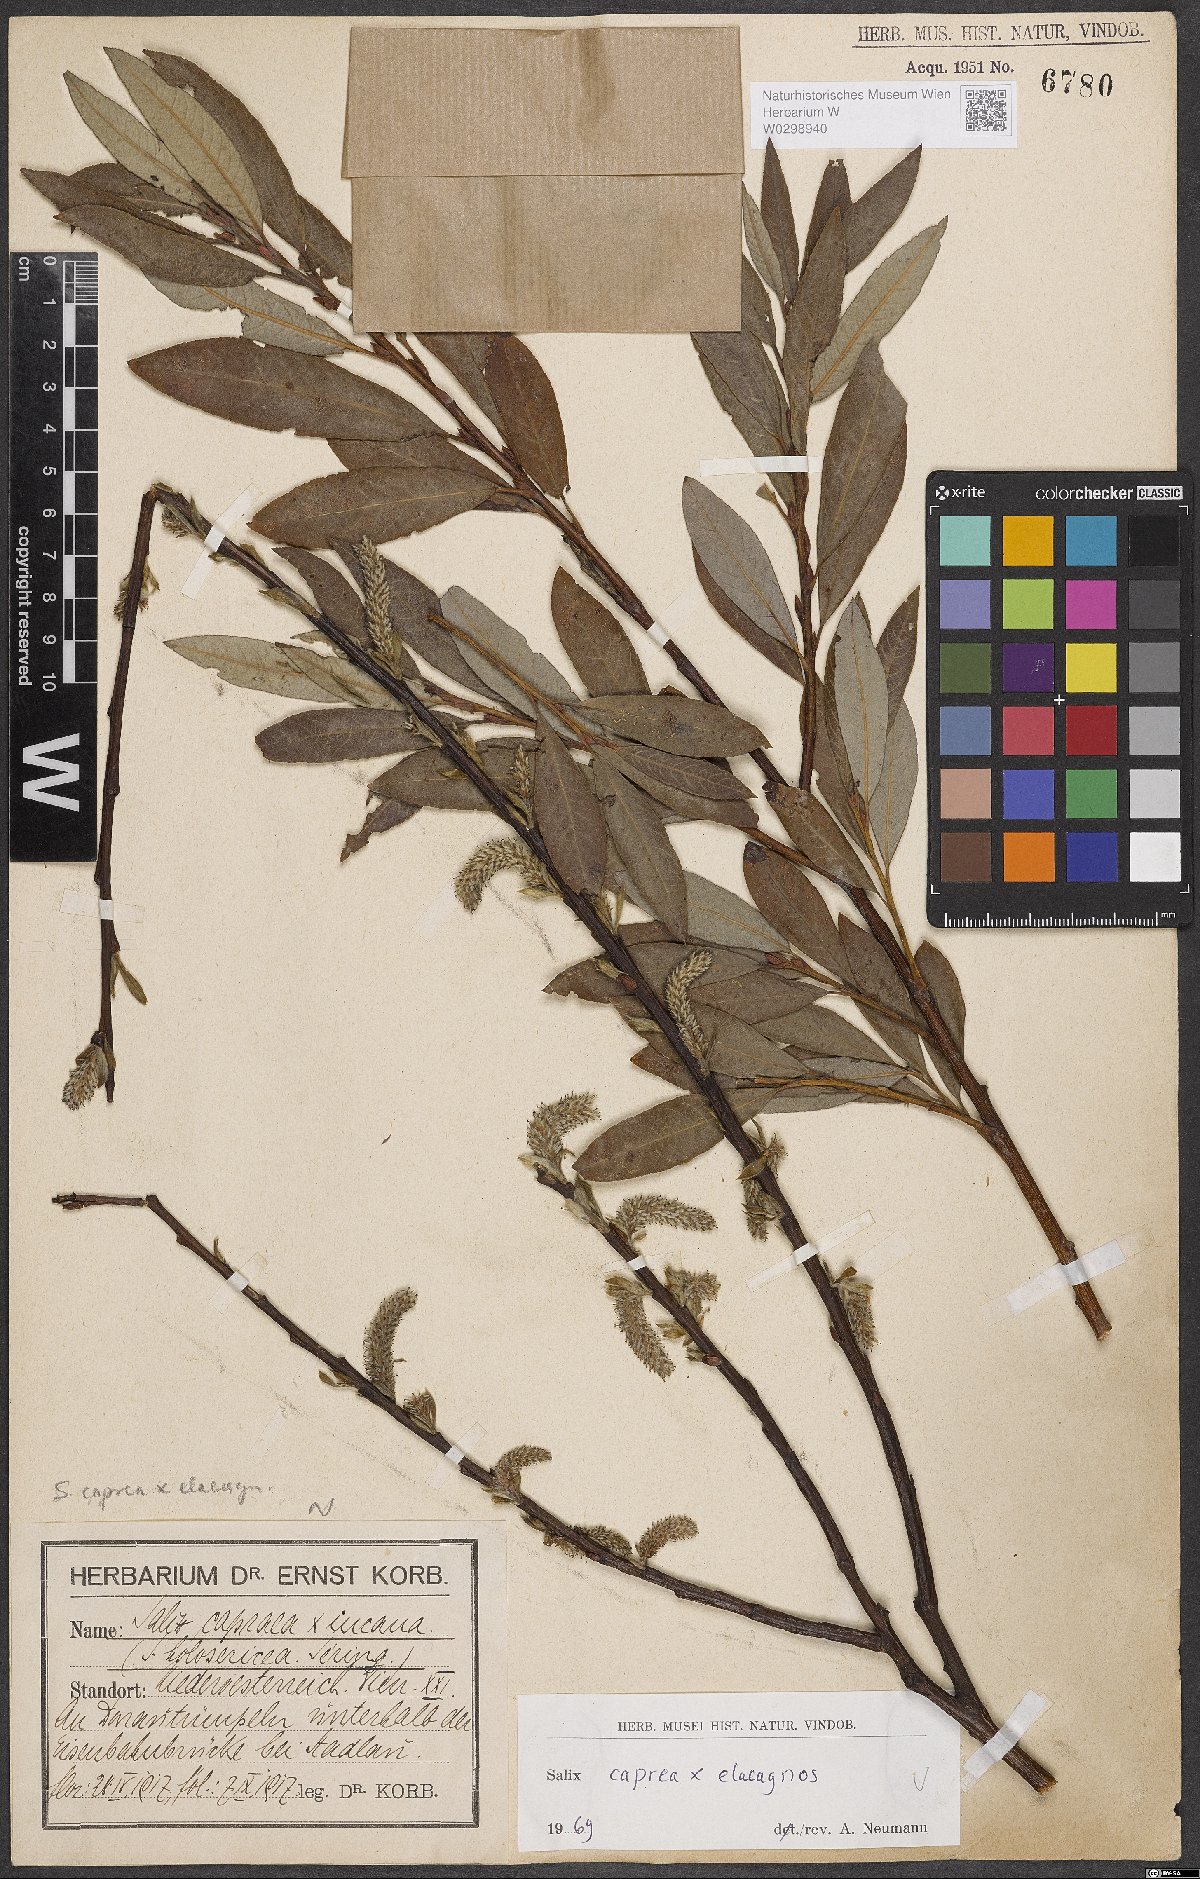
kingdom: Plantae
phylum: Tracheophyta
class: Magnoliopsida
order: Malpighiales
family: Salicaceae
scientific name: Salicaceae
